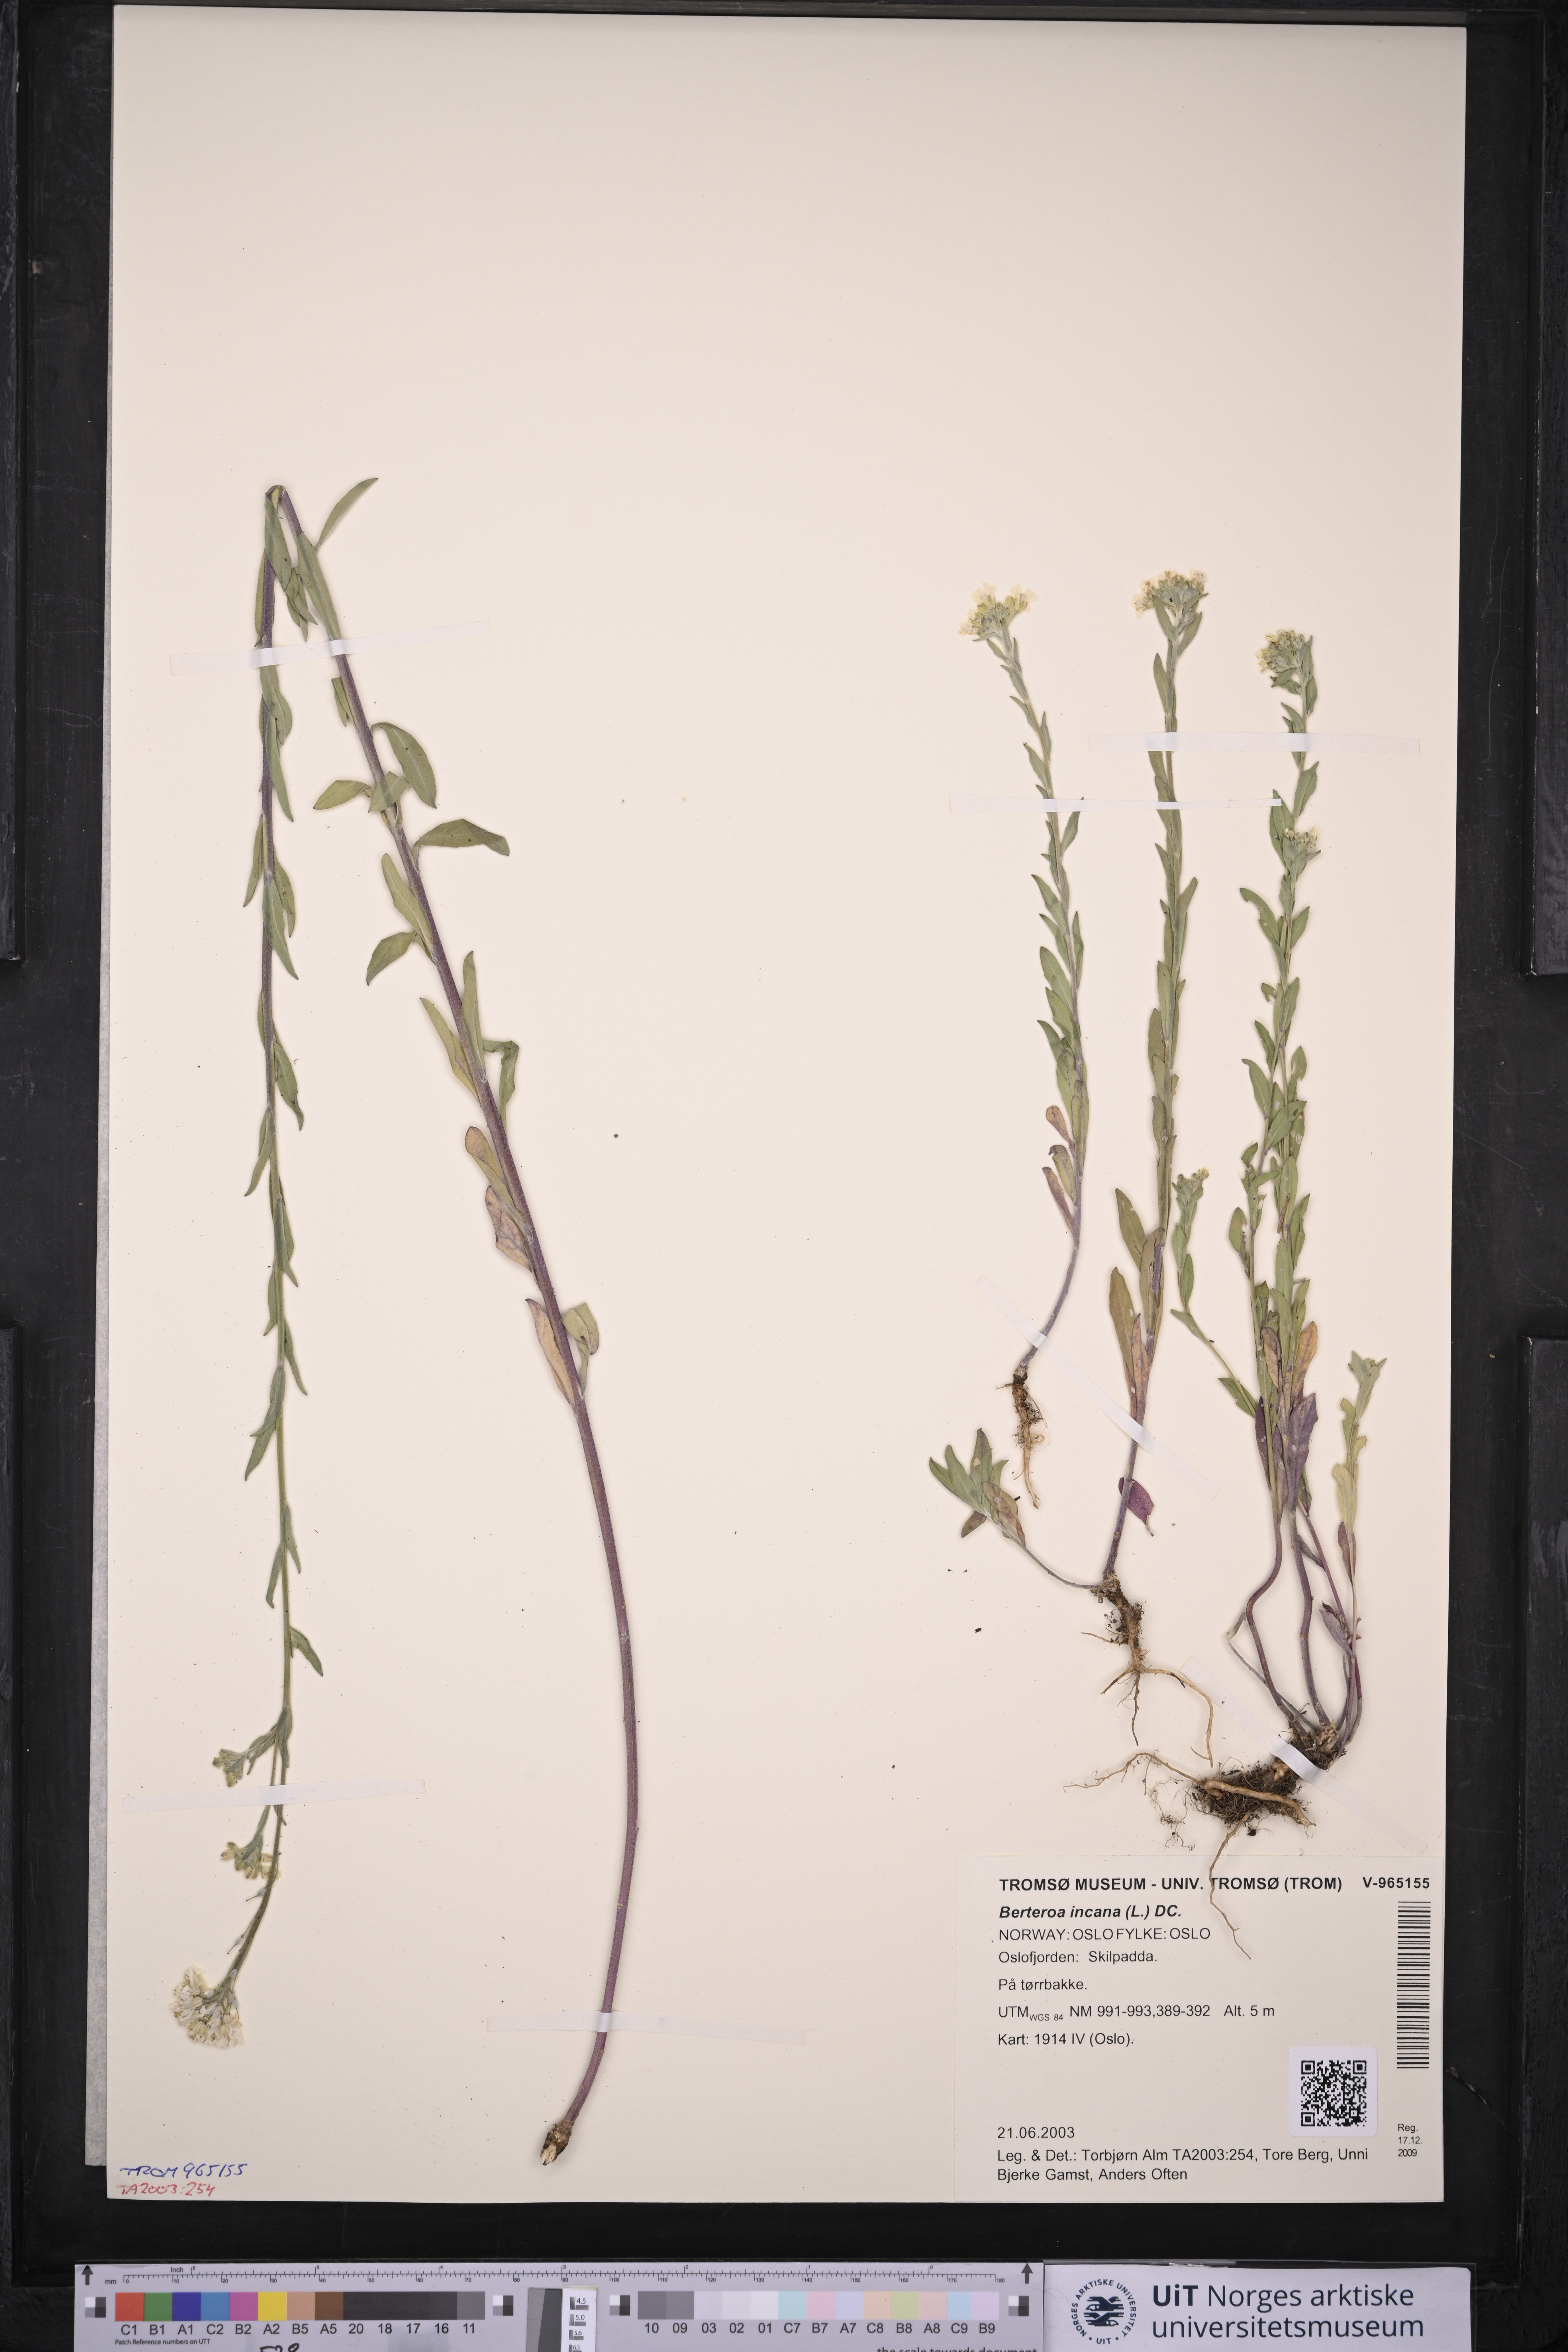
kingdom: Plantae
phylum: Tracheophyta
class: Magnoliopsida
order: Brassicales
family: Brassicaceae
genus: Berteroa
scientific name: Berteroa incana
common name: Hoary alison
